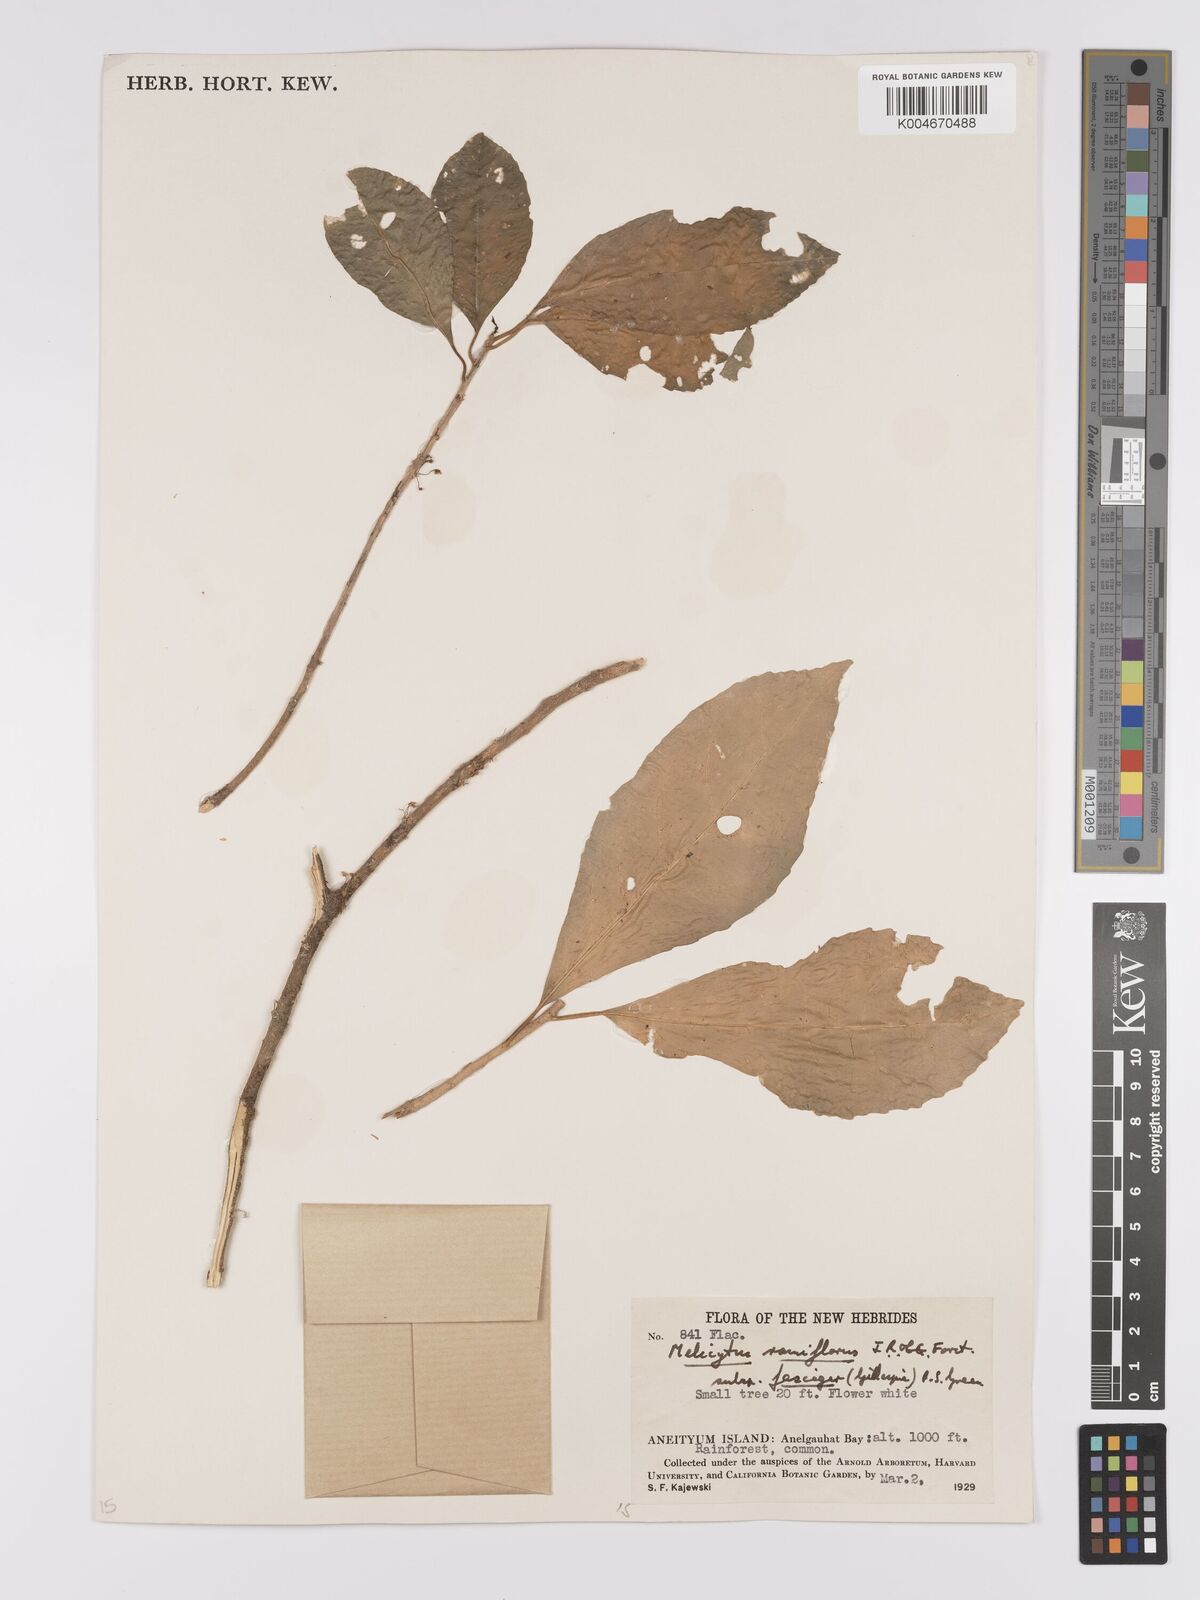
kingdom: Plantae
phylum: Tracheophyta
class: Magnoliopsida
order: Malpighiales
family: Violaceae
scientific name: Violaceae
